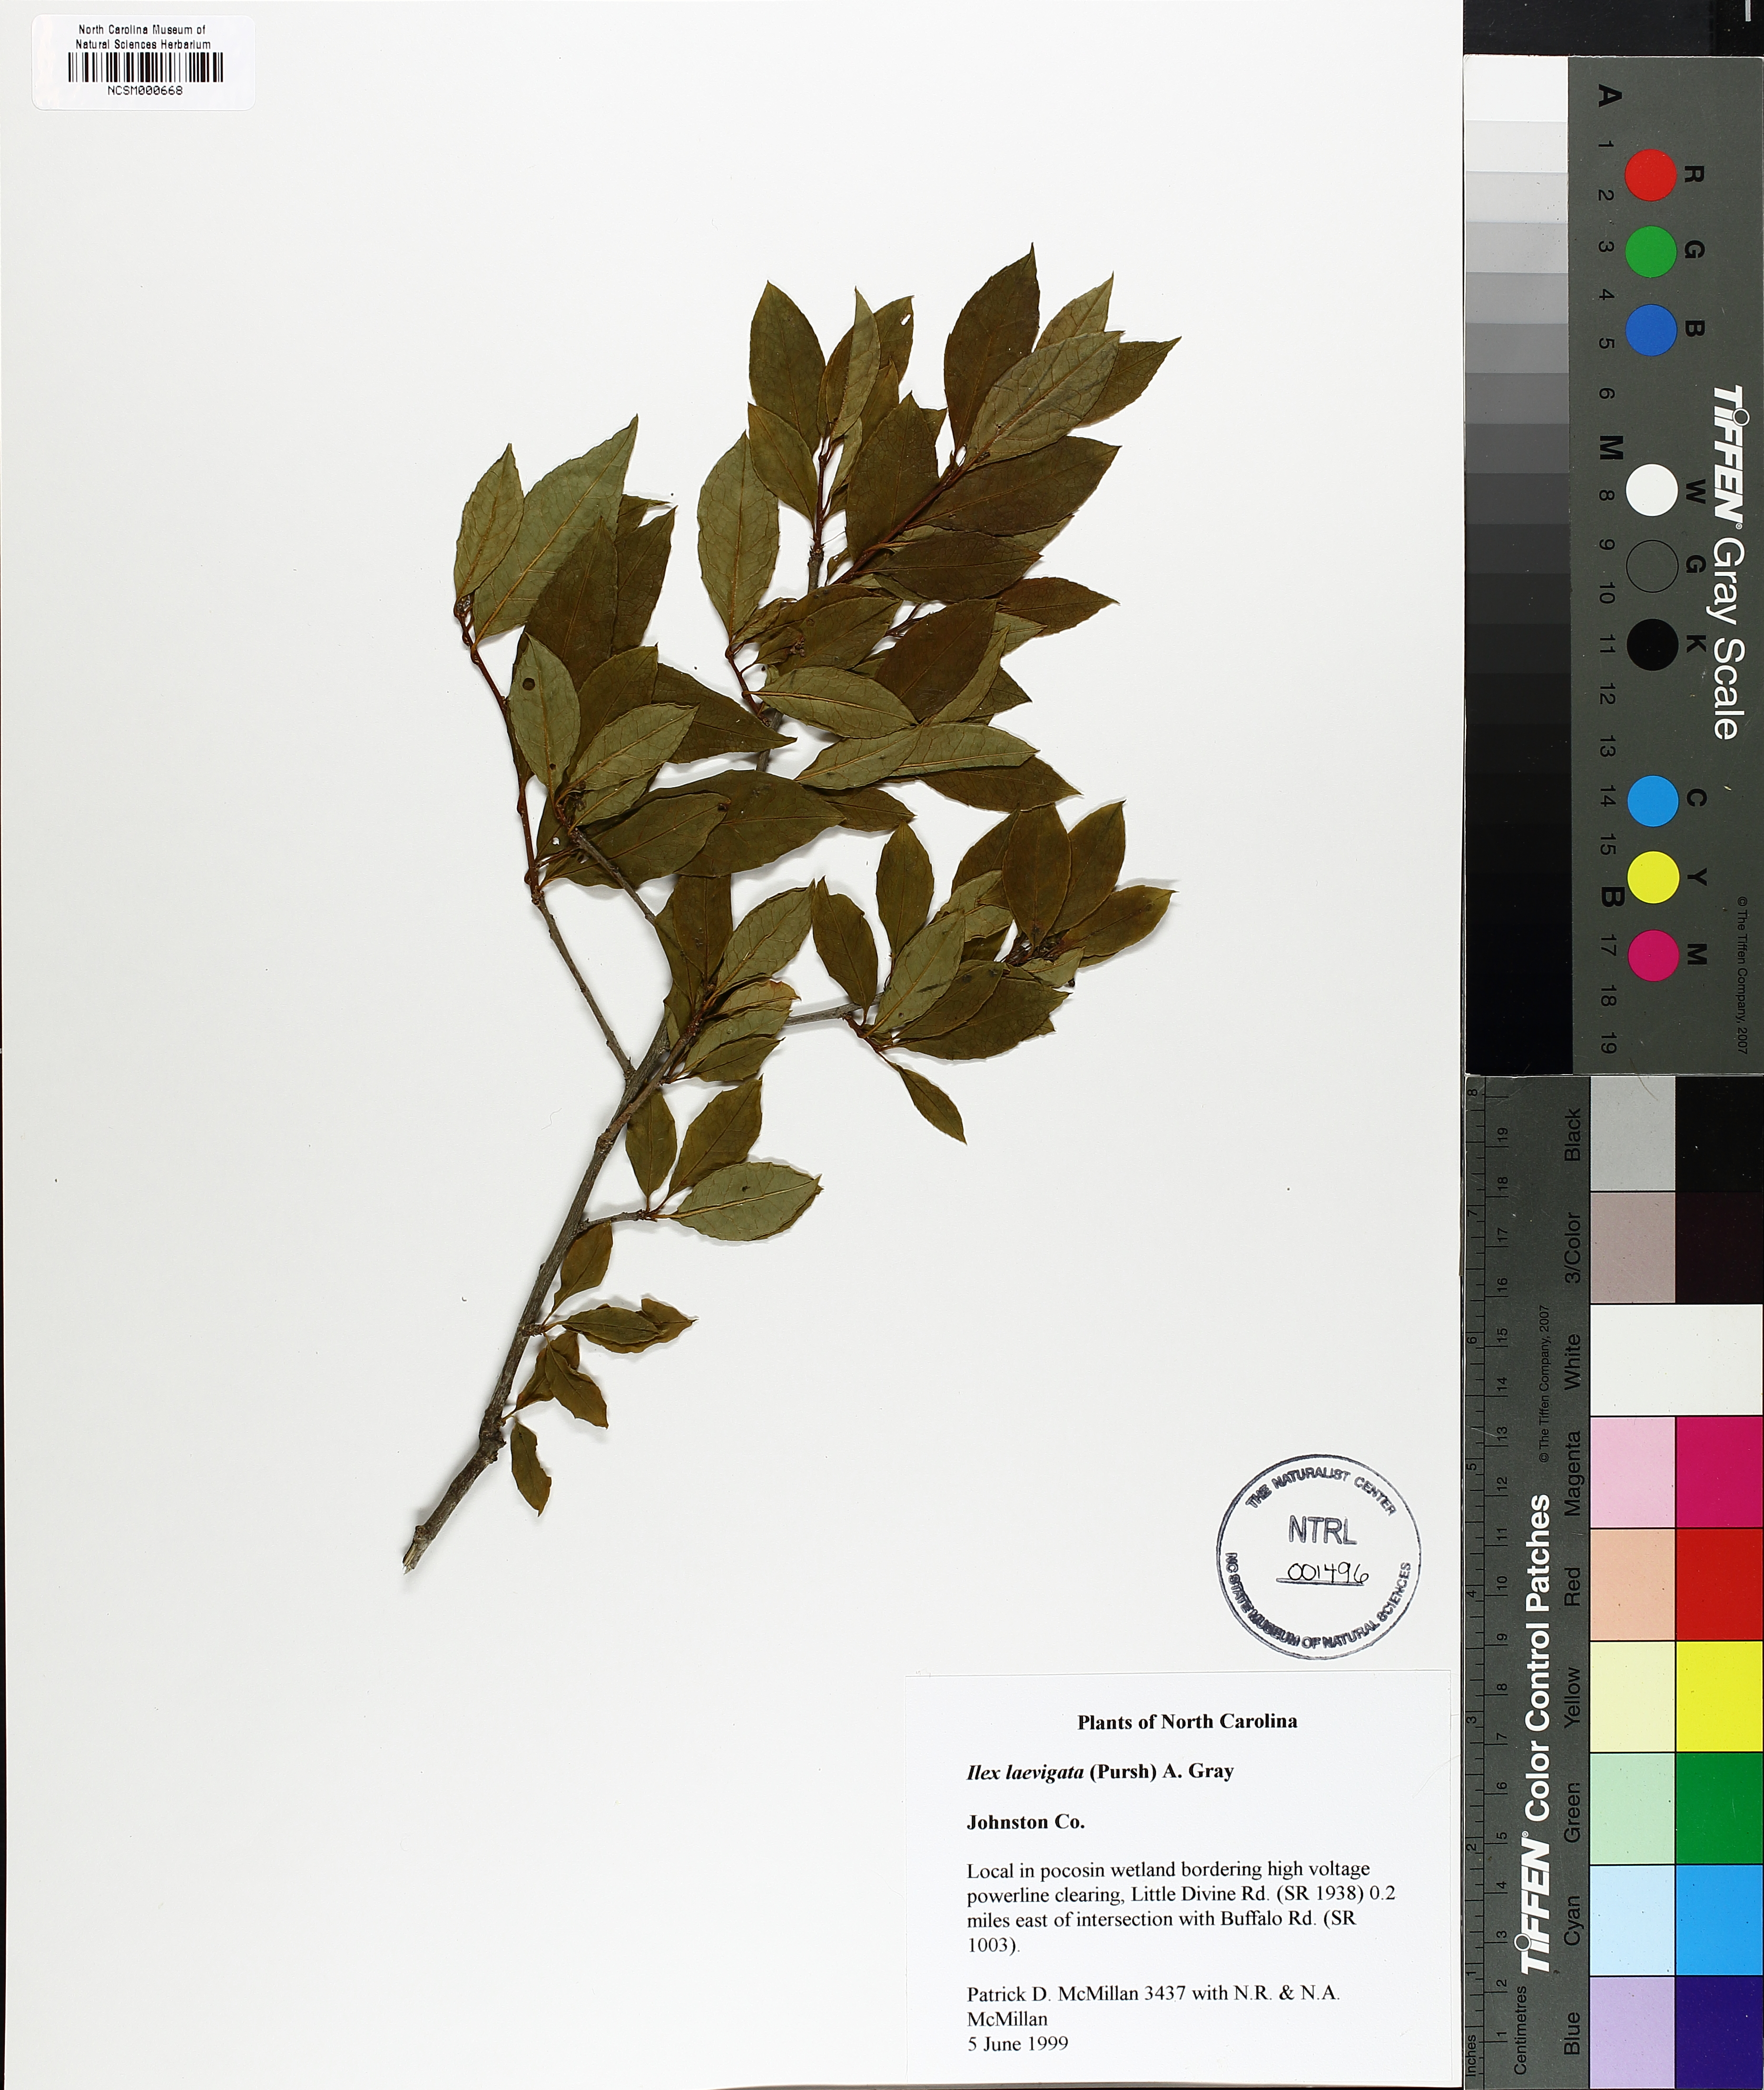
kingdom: Plantae
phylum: Tracheophyta
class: Magnoliopsida
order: Aquifoliales
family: Aquifoliaceae
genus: Ilex
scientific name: Ilex laevigata
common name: Smooth winterberry
